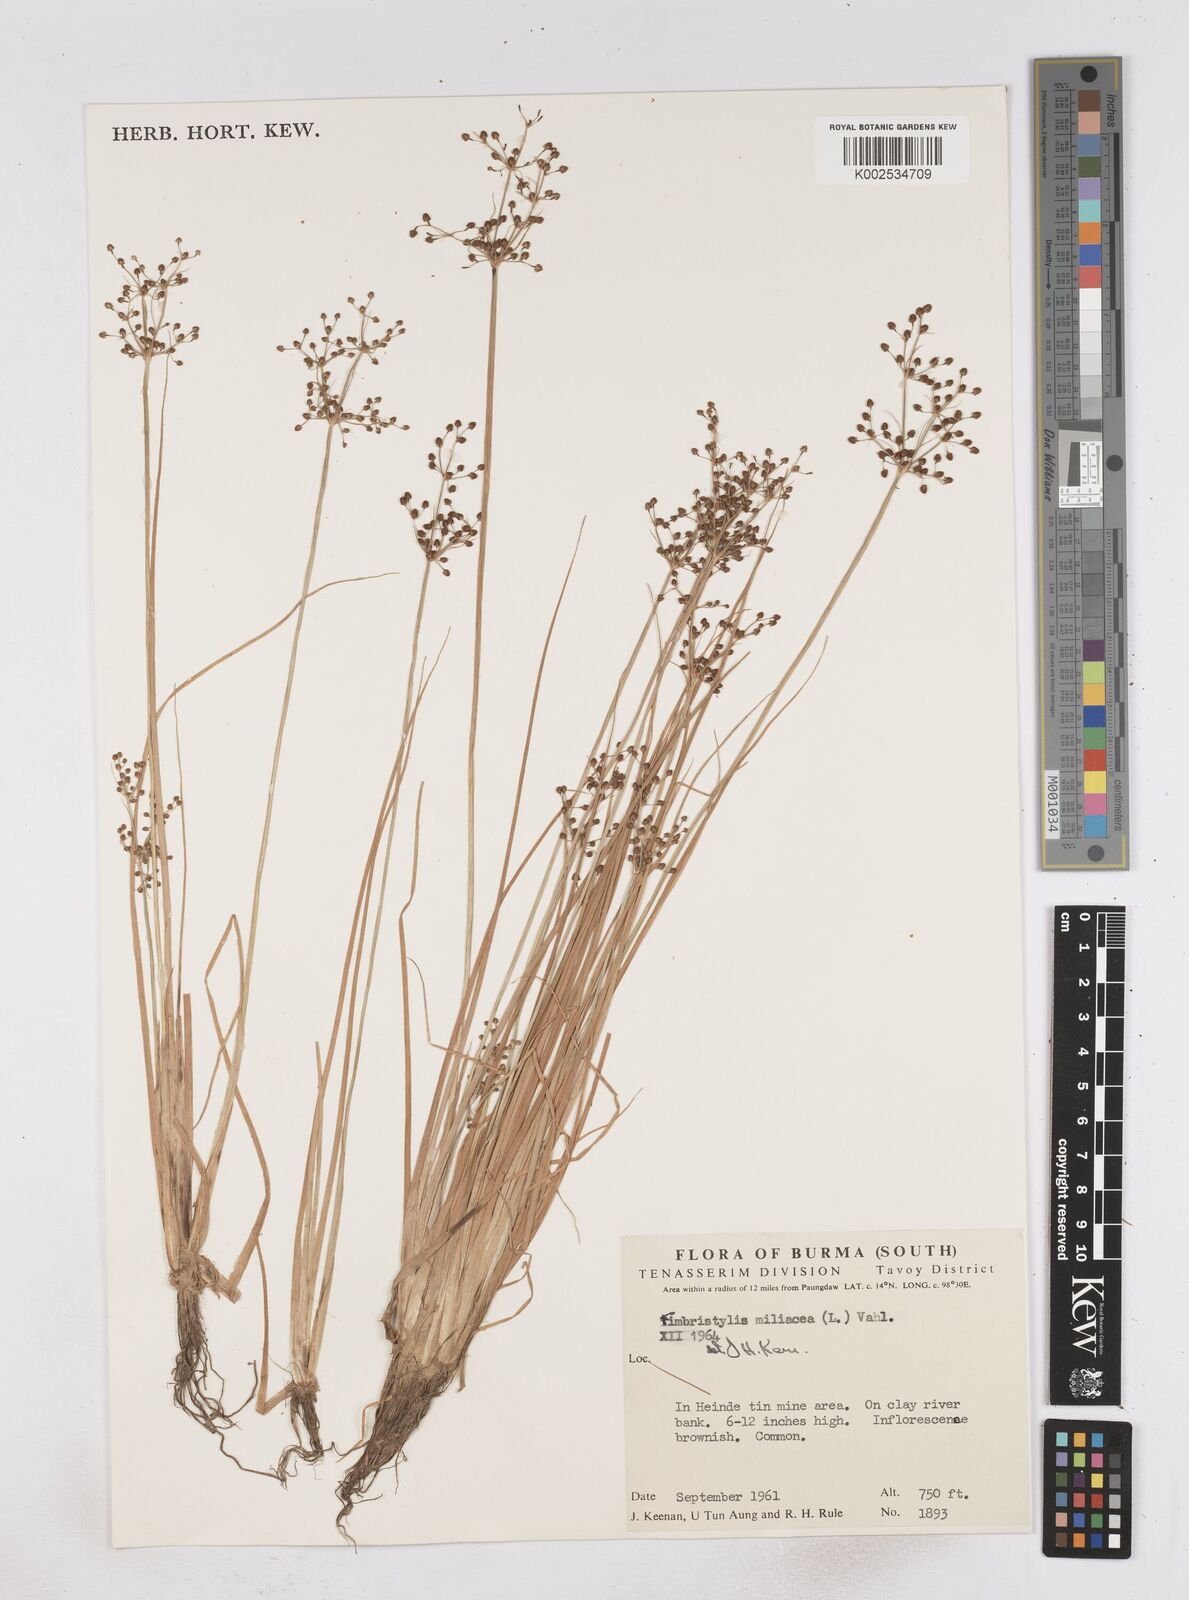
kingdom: Plantae
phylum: Tracheophyta
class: Liliopsida
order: Poales
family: Cyperaceae
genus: Fimbristylis
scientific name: Fimbristylis littoralis
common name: Fimbry
